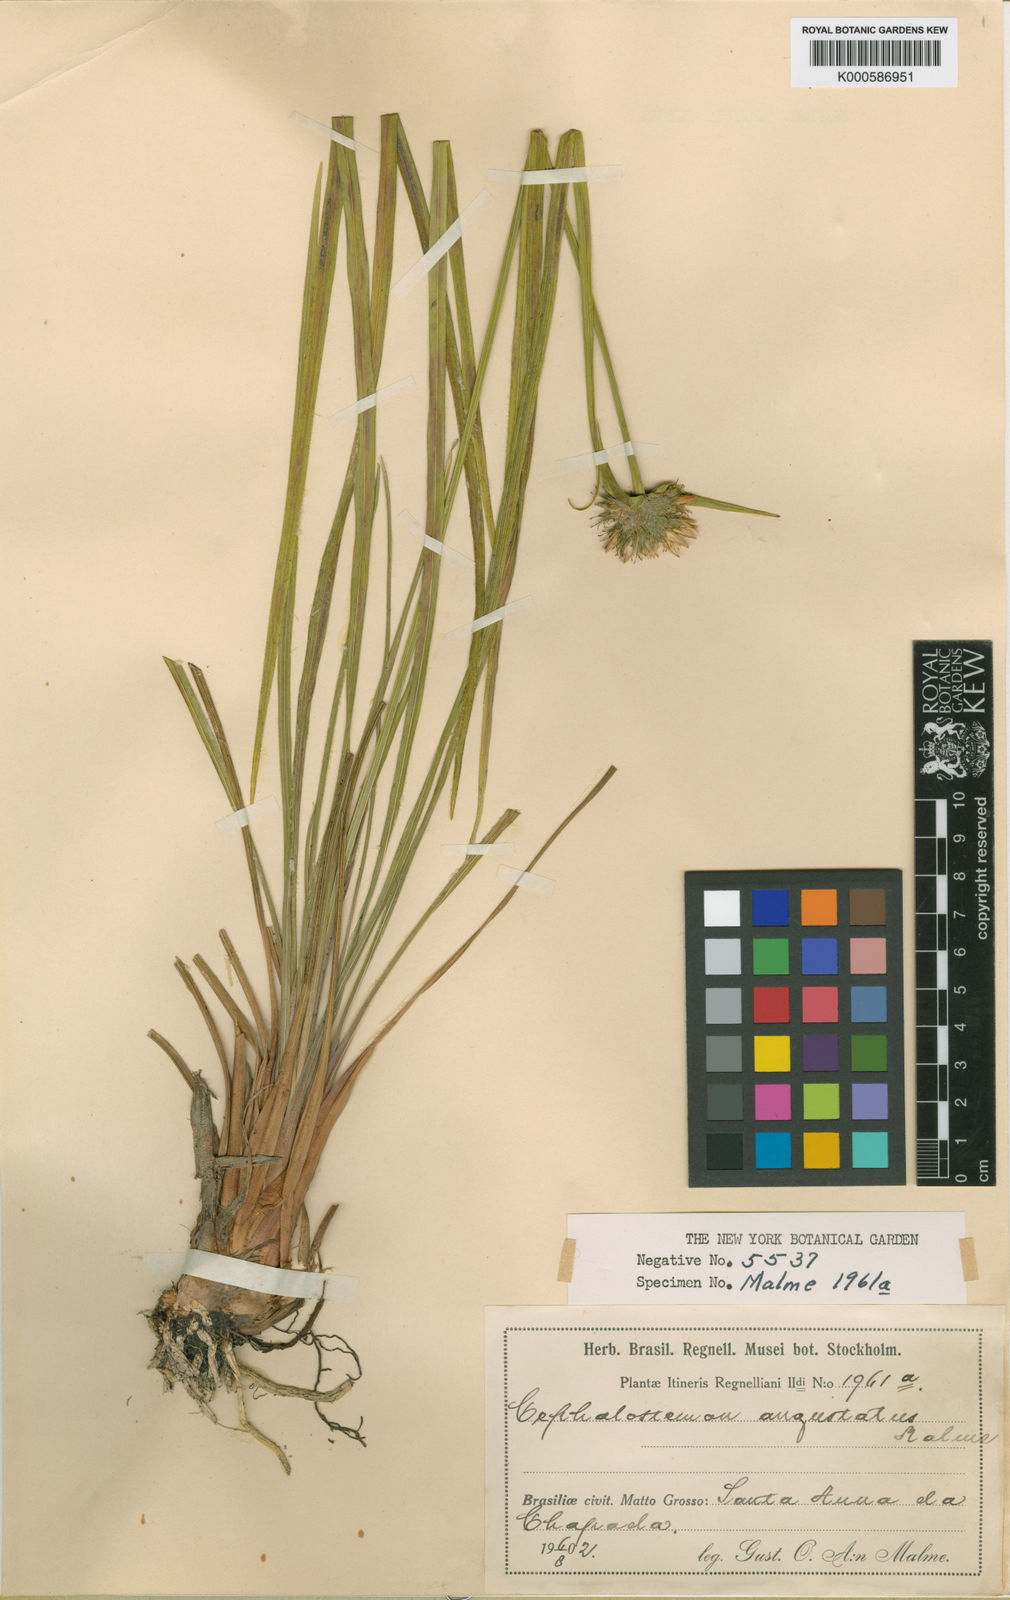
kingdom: Plantae
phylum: Tracheophyta
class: Liliopsida
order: Poales
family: Rapateaceae
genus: Cephalostemon
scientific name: Cephalostemon angustatus
